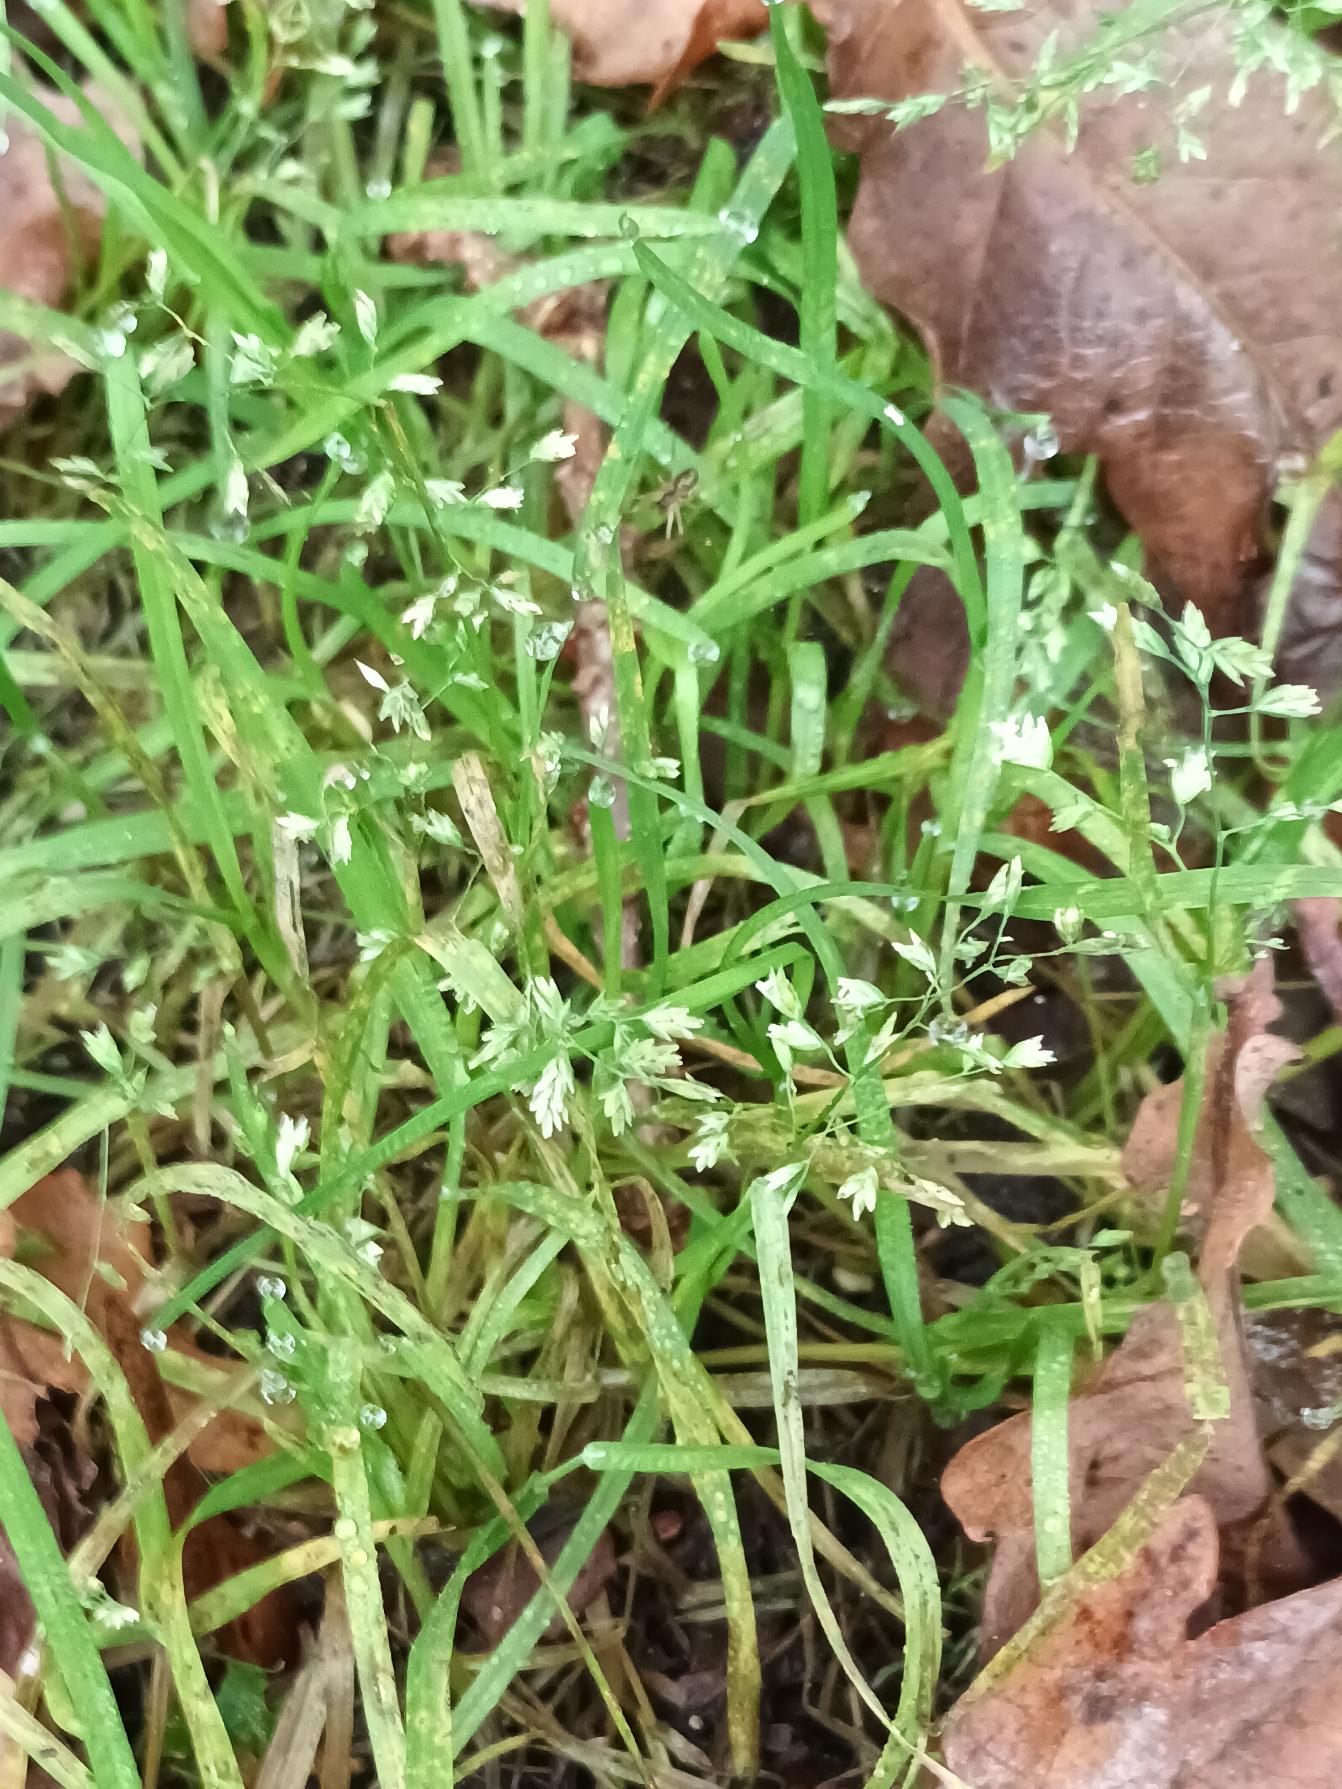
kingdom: Plantae
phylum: Tracheophyta
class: Liliopsida
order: Poales
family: Poaceae
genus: Poa
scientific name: Poa annua
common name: Enårig rapgræs
